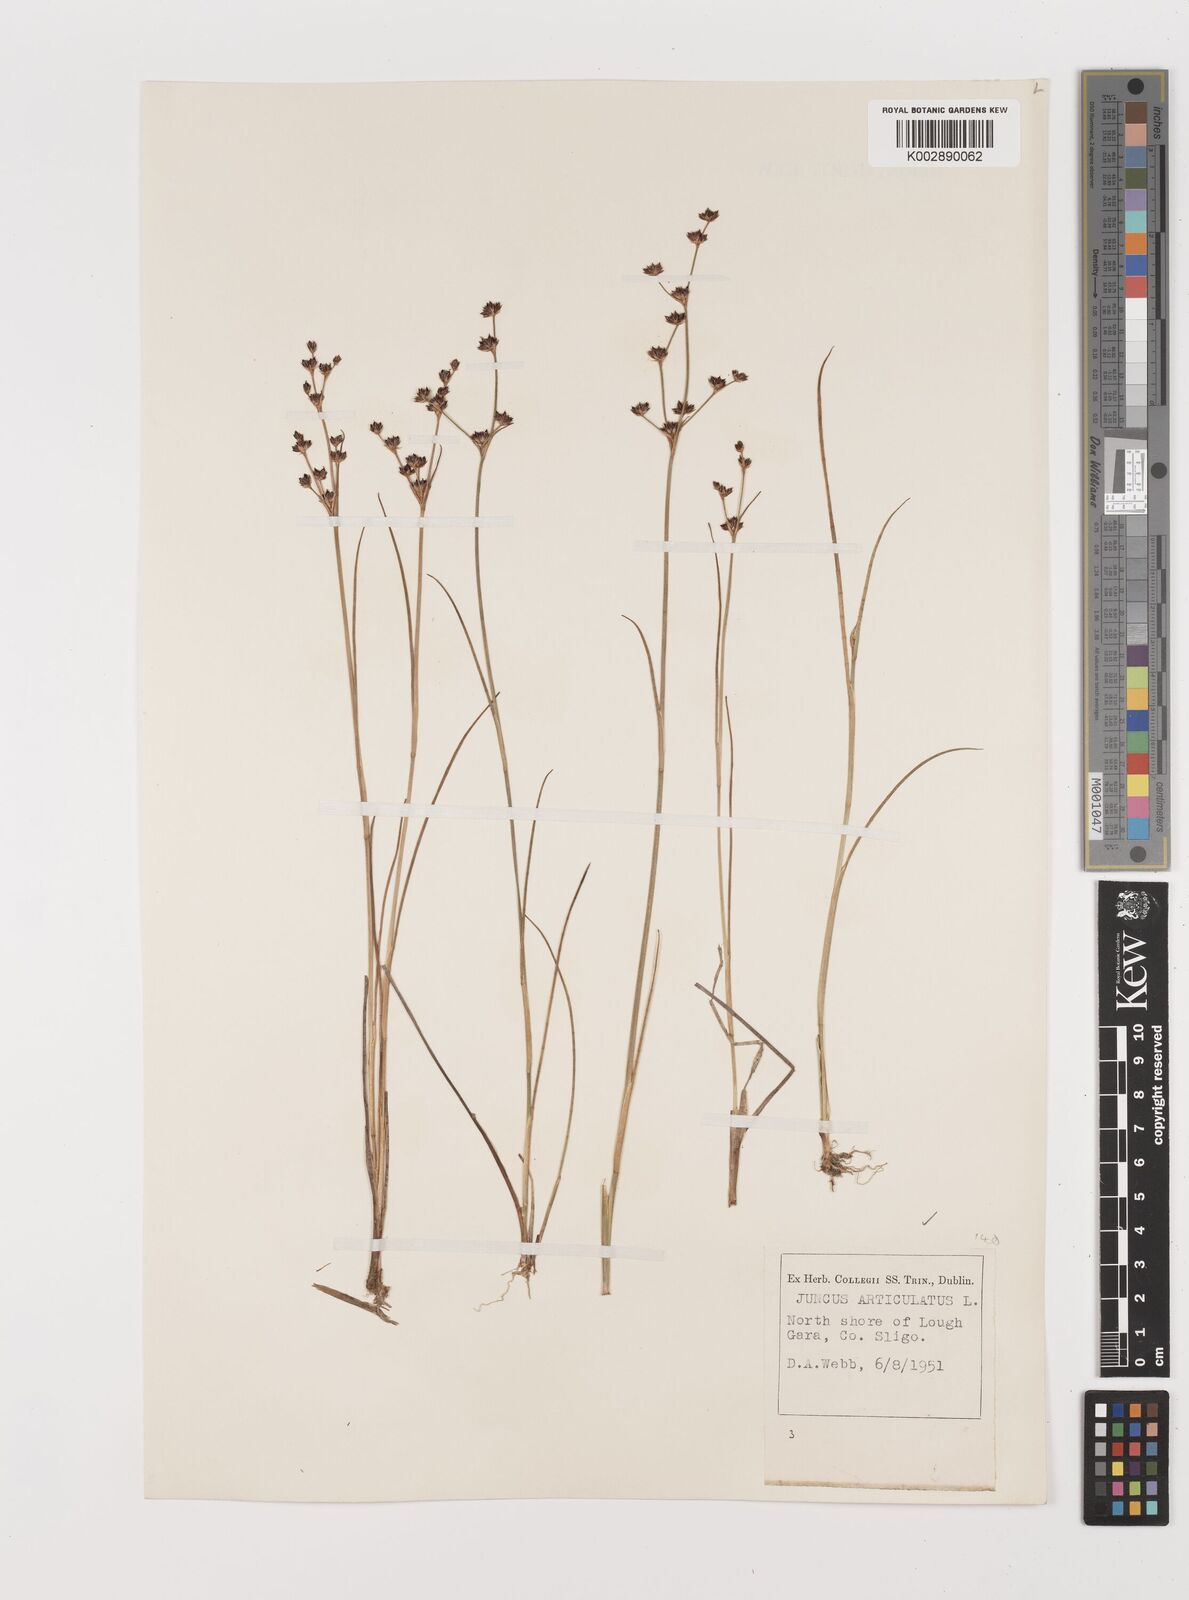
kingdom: Plantae
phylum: Tracheophyta
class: Liliopsida
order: Poales
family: Juncaceae
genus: Juncus
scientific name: Juncus articulatus
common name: Jointed rush
